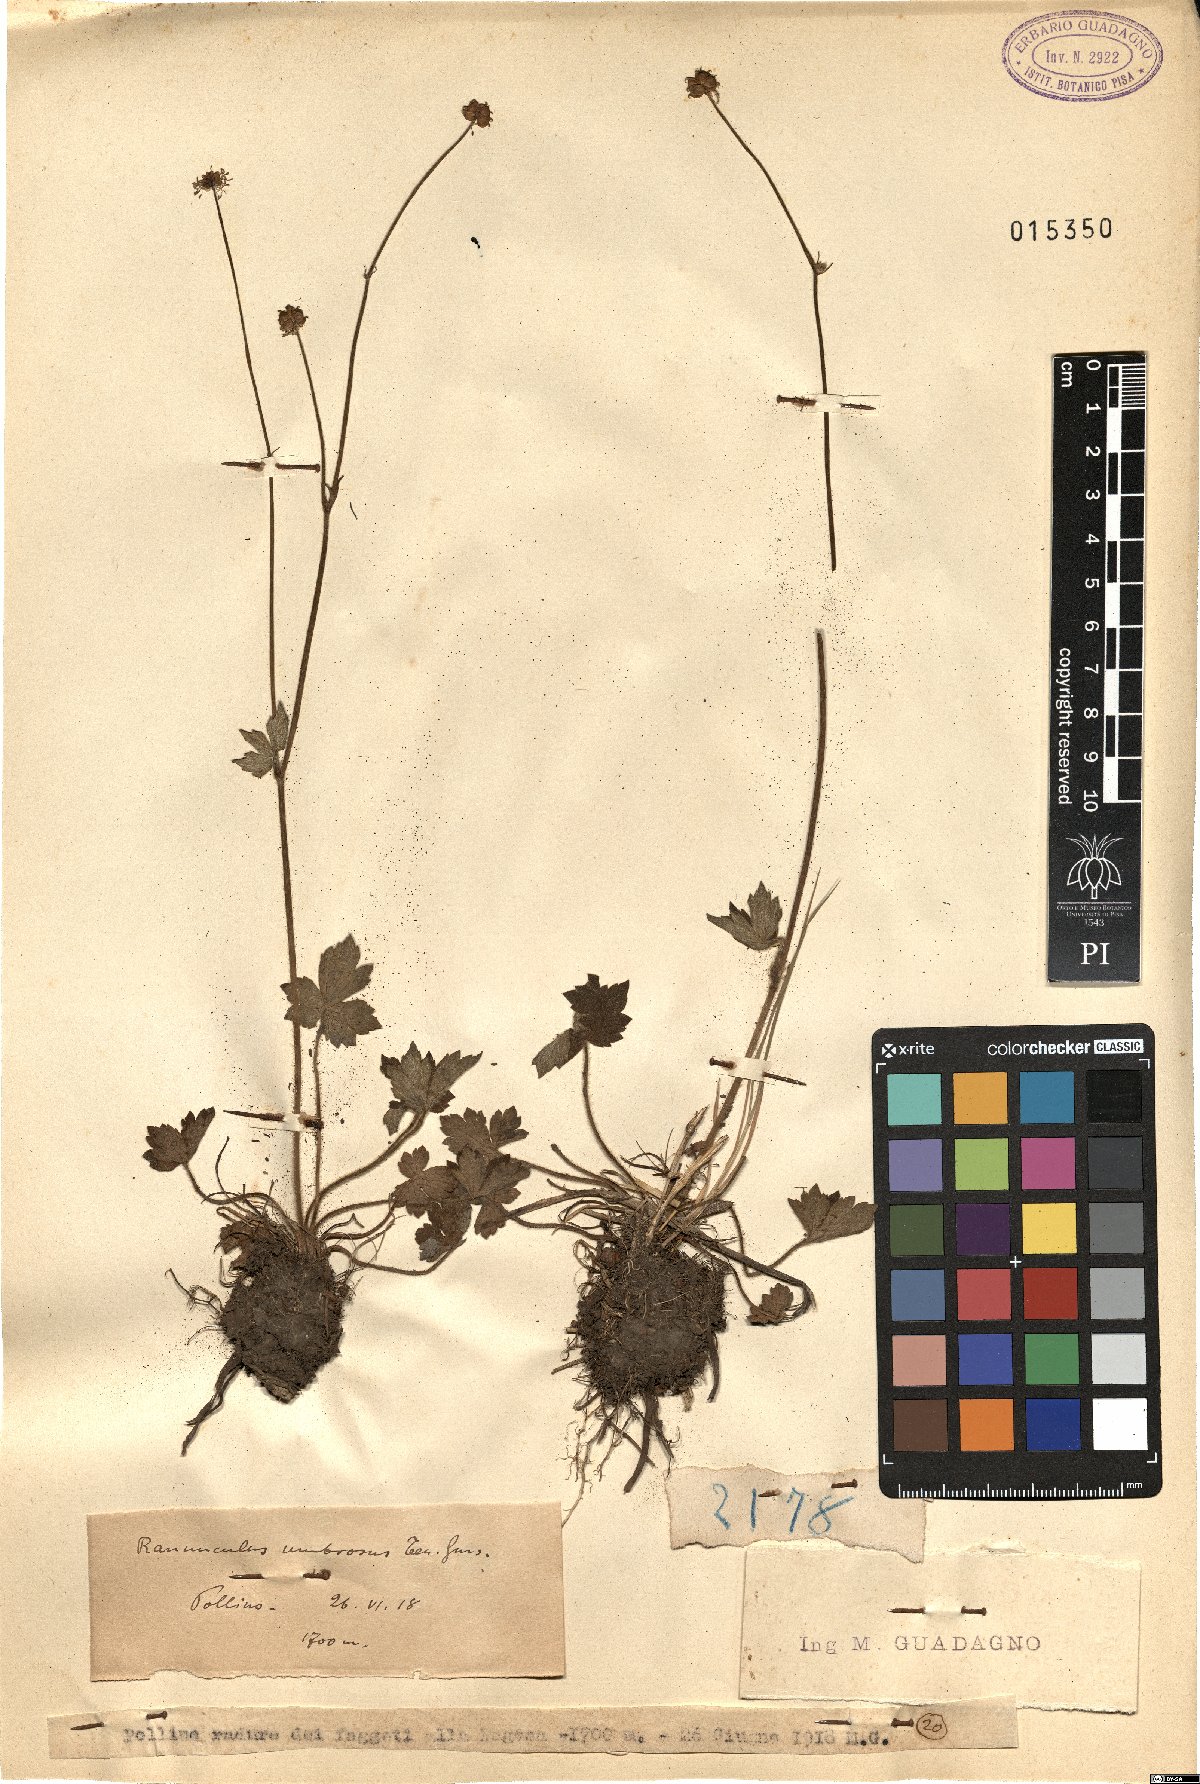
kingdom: Plantae
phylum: Tracheophyta
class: Magnoliopsida
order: Ranunculales
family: Ranunculaceae
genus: Ranunculus
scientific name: Ranunculus lanuginosus
